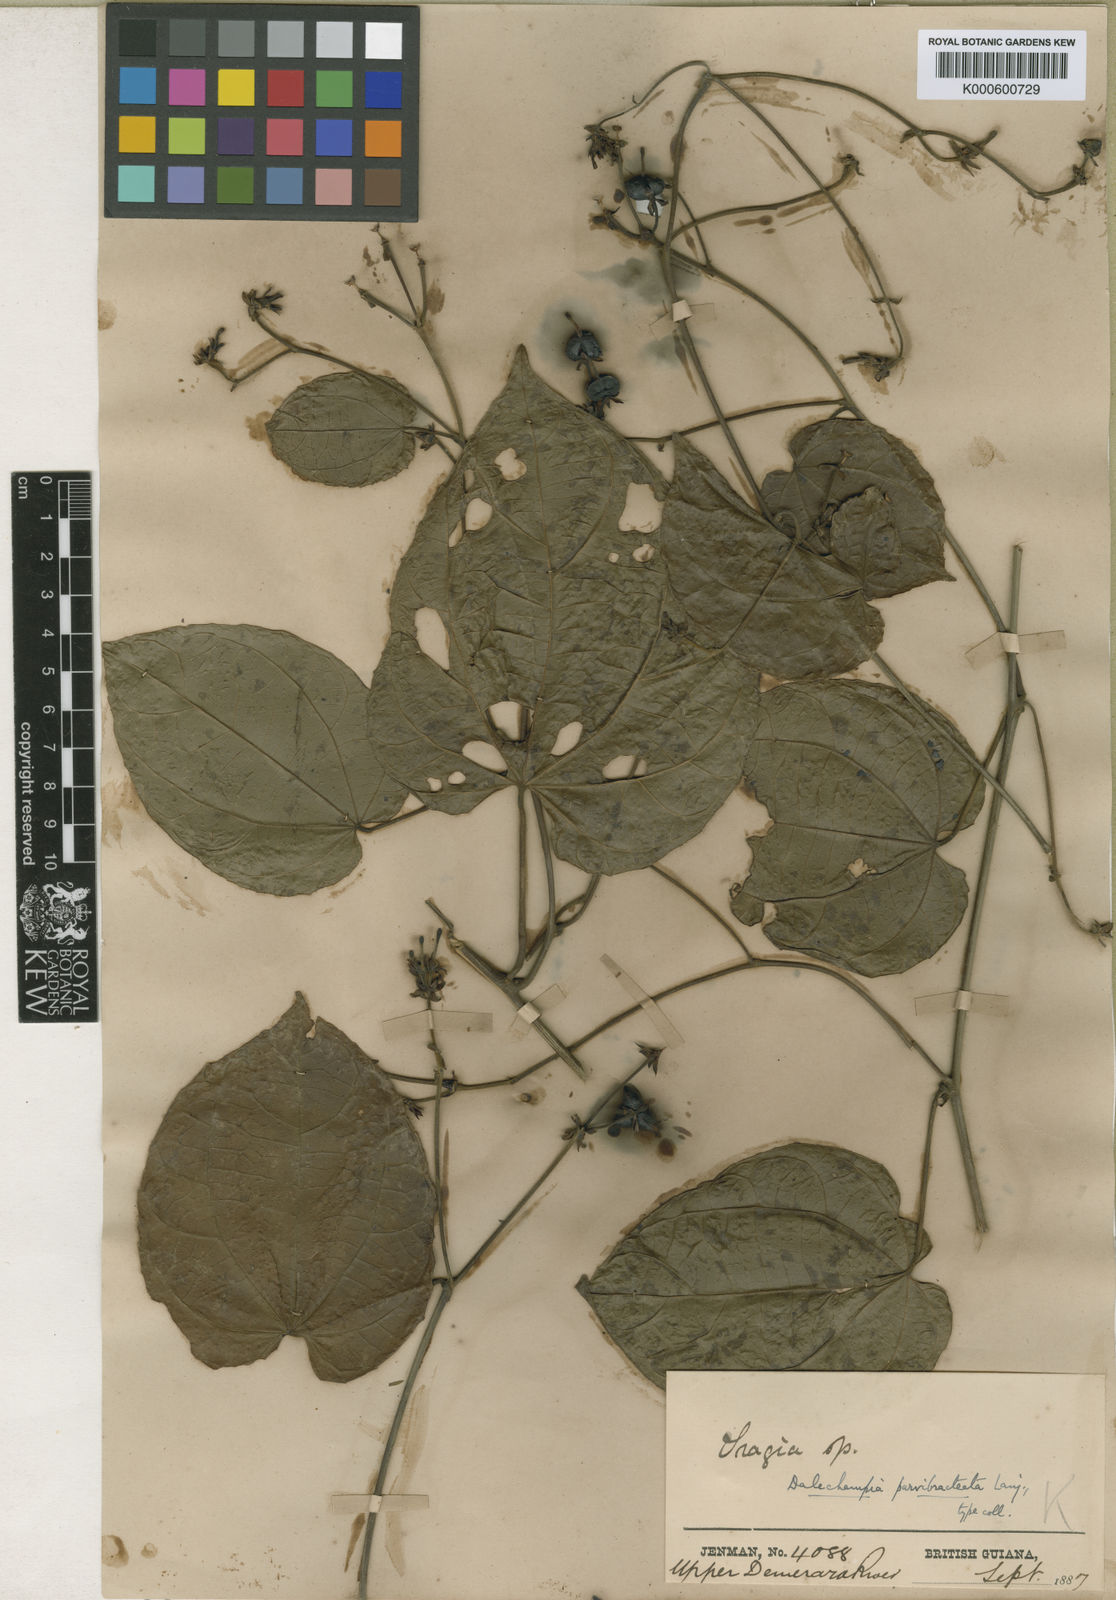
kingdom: Plantae
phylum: Tracheophyta
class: Magnoliopsida
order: Malpighiales
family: Euphorbiaceae
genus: Dalechampia
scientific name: Dalechampia parvibracteata
